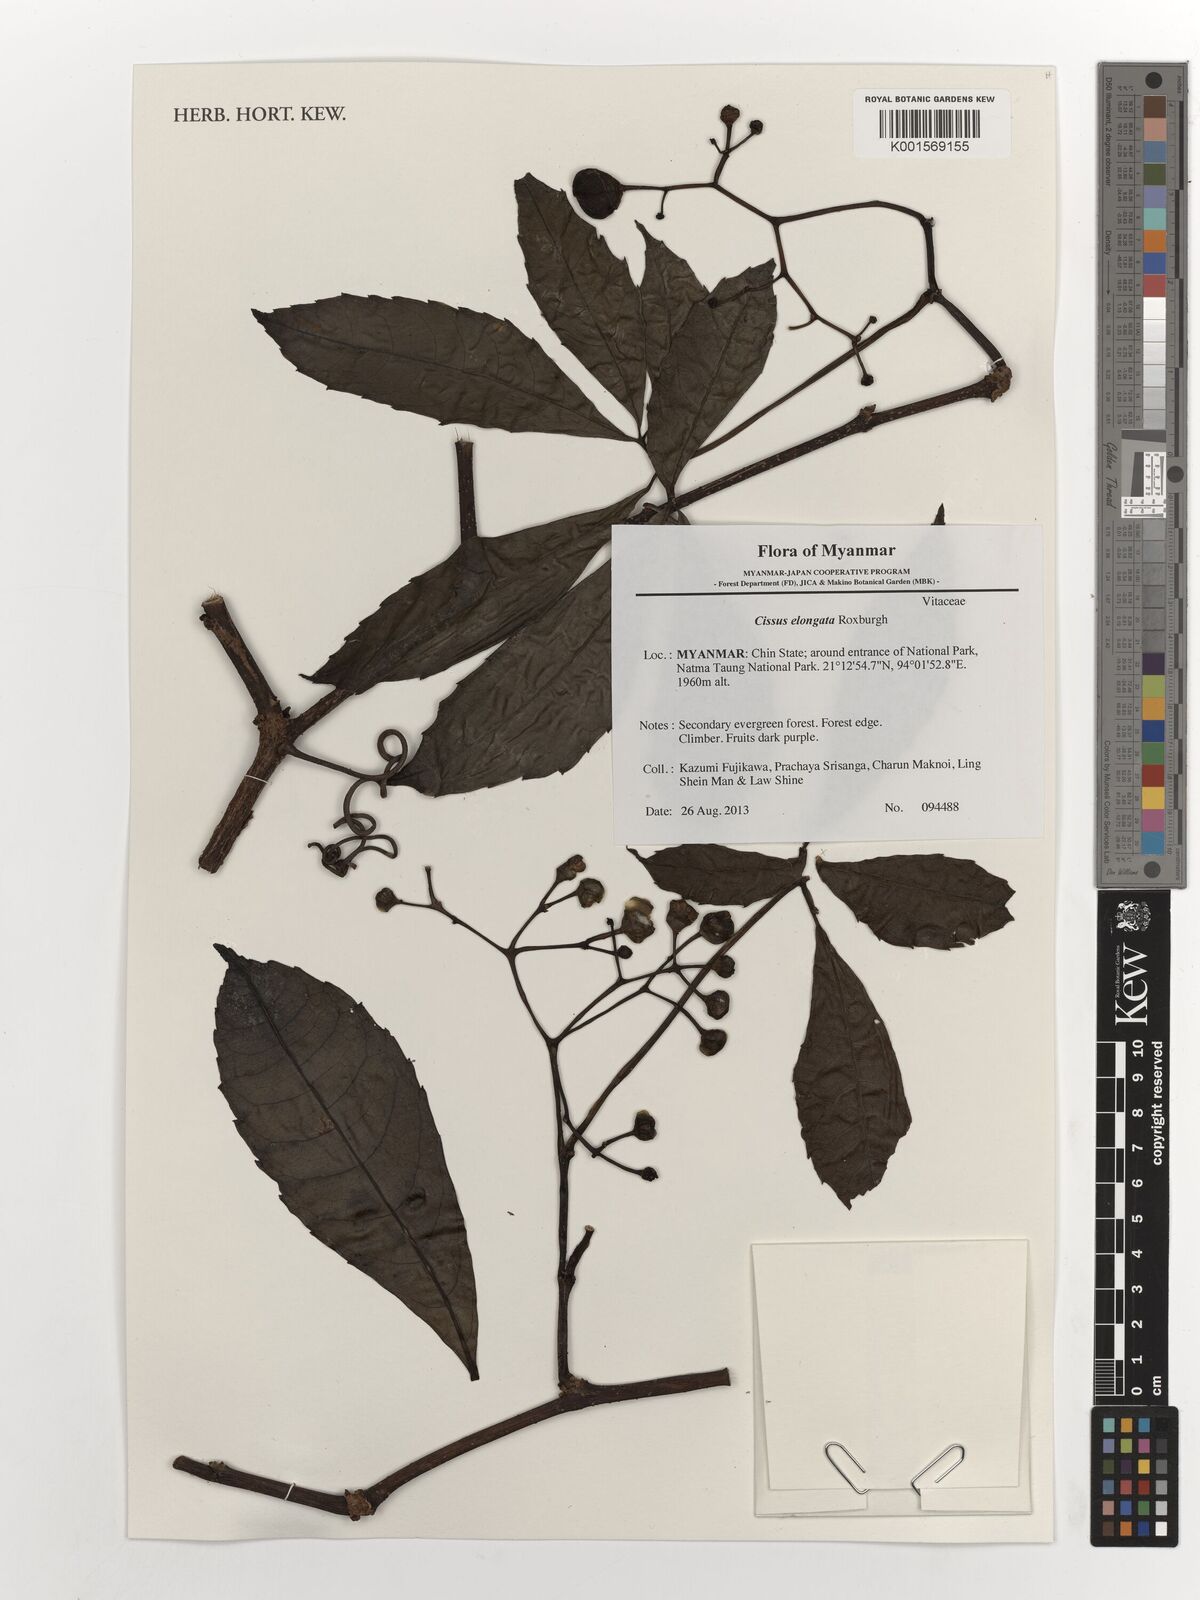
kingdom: Plantae
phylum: Tracheophyta
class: Magnoliopsida
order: Vitales
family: Vitaceae
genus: Cissus
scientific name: Cissus elongata
